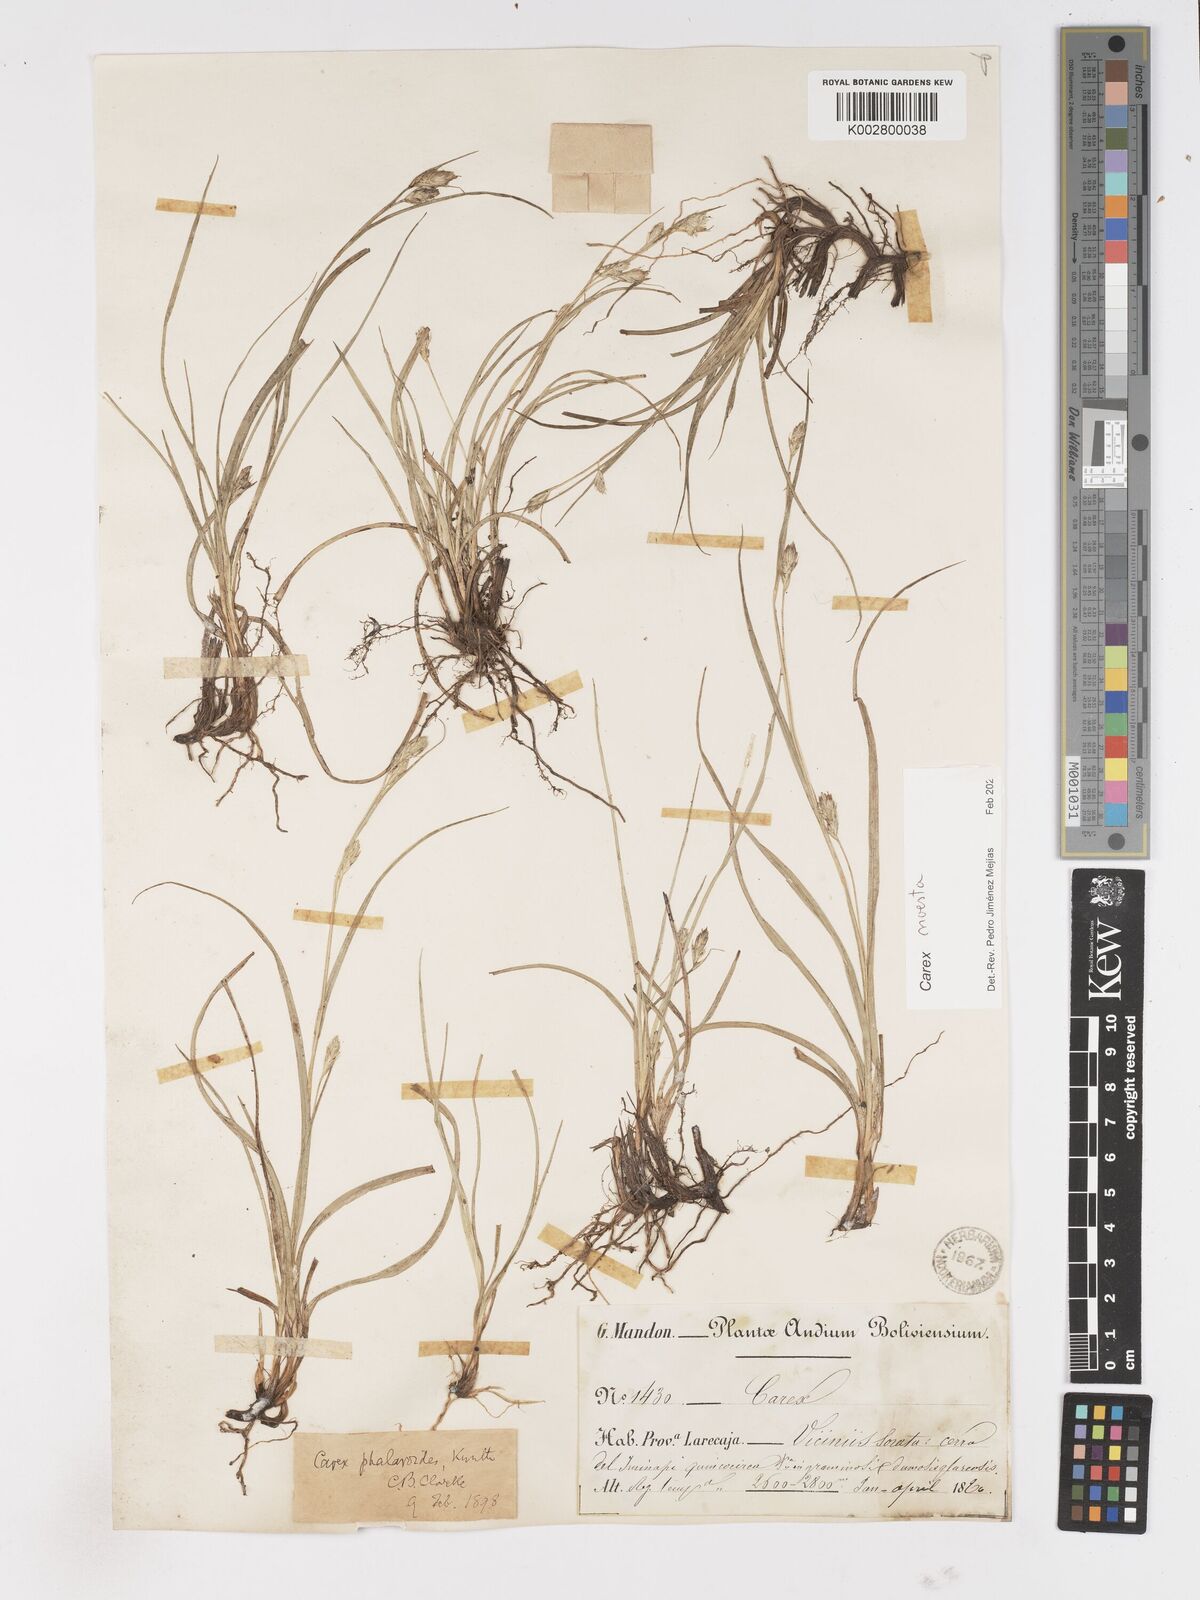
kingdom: Plantae
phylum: Tracheophyta
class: Liliopsida
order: Poales
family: Cyperaceae
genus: Carex
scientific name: Carex phalaroides
